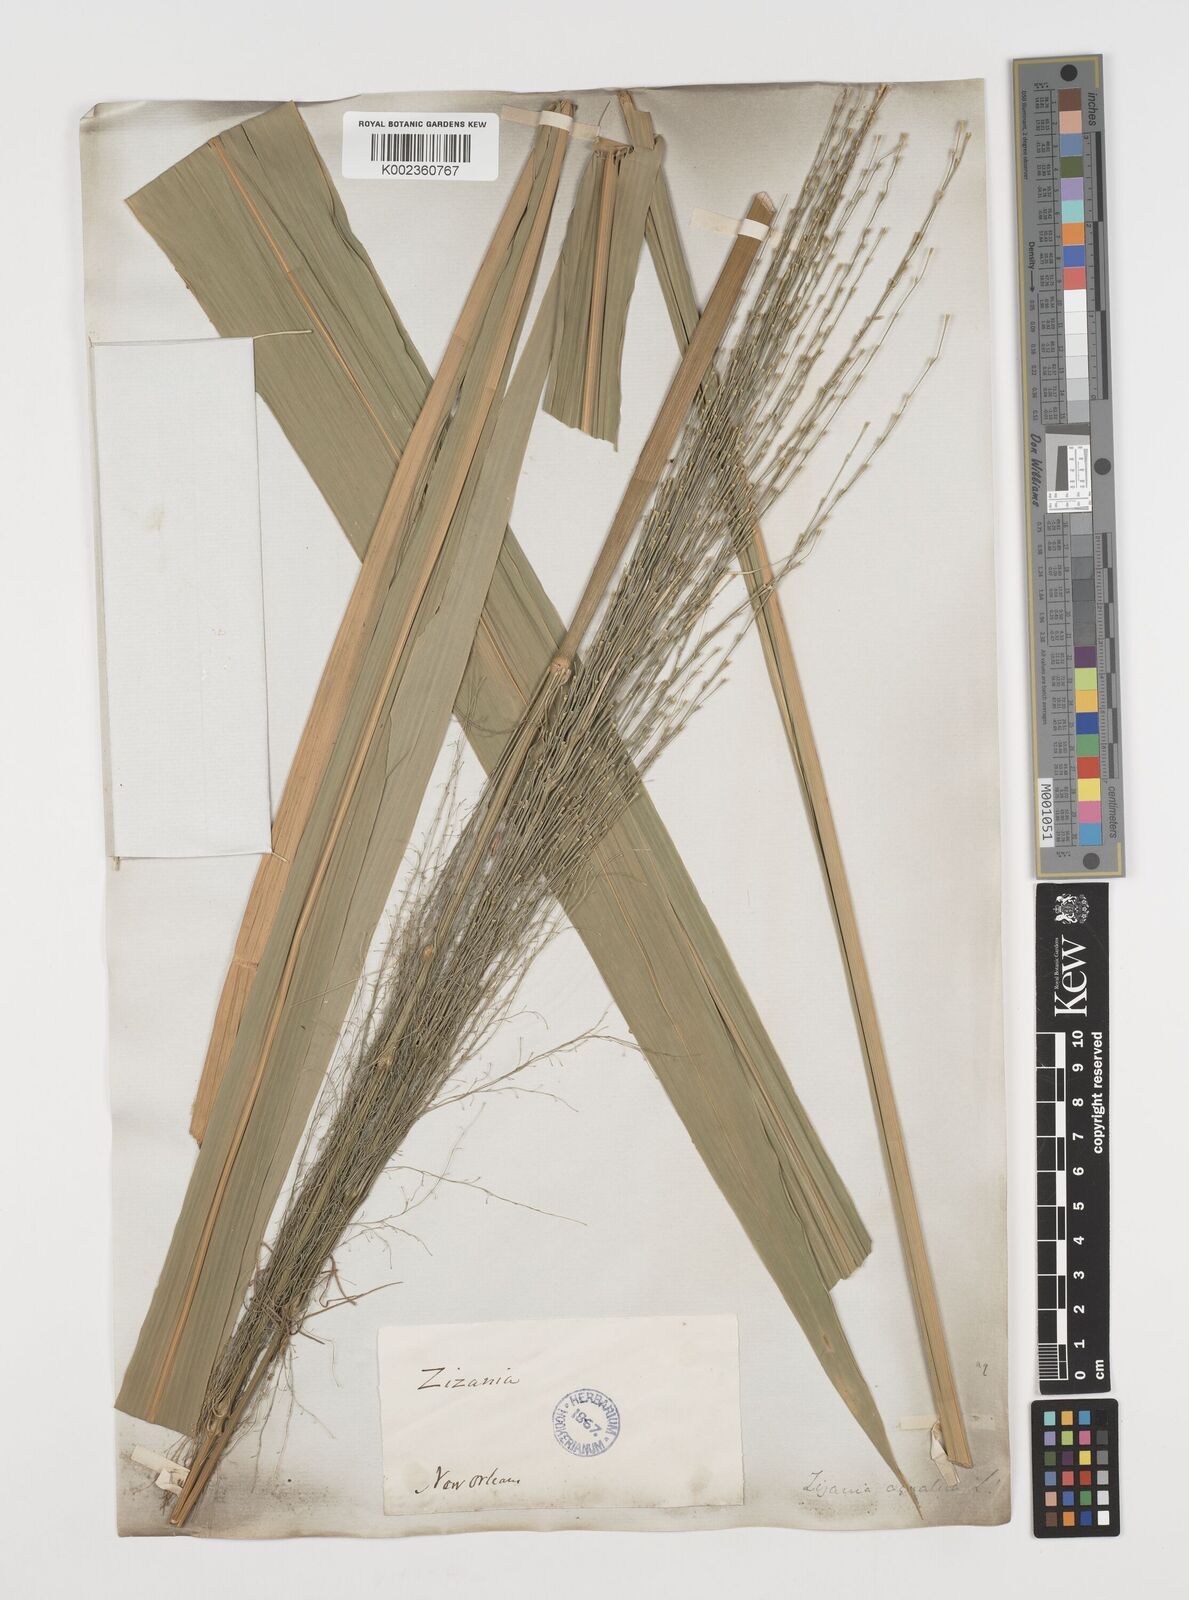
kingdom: Plantae
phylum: Tracheophyta
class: Liliopsida
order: Poales
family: Poaceae
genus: Zizania
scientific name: Zizania aquatica
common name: Annual wildrice
